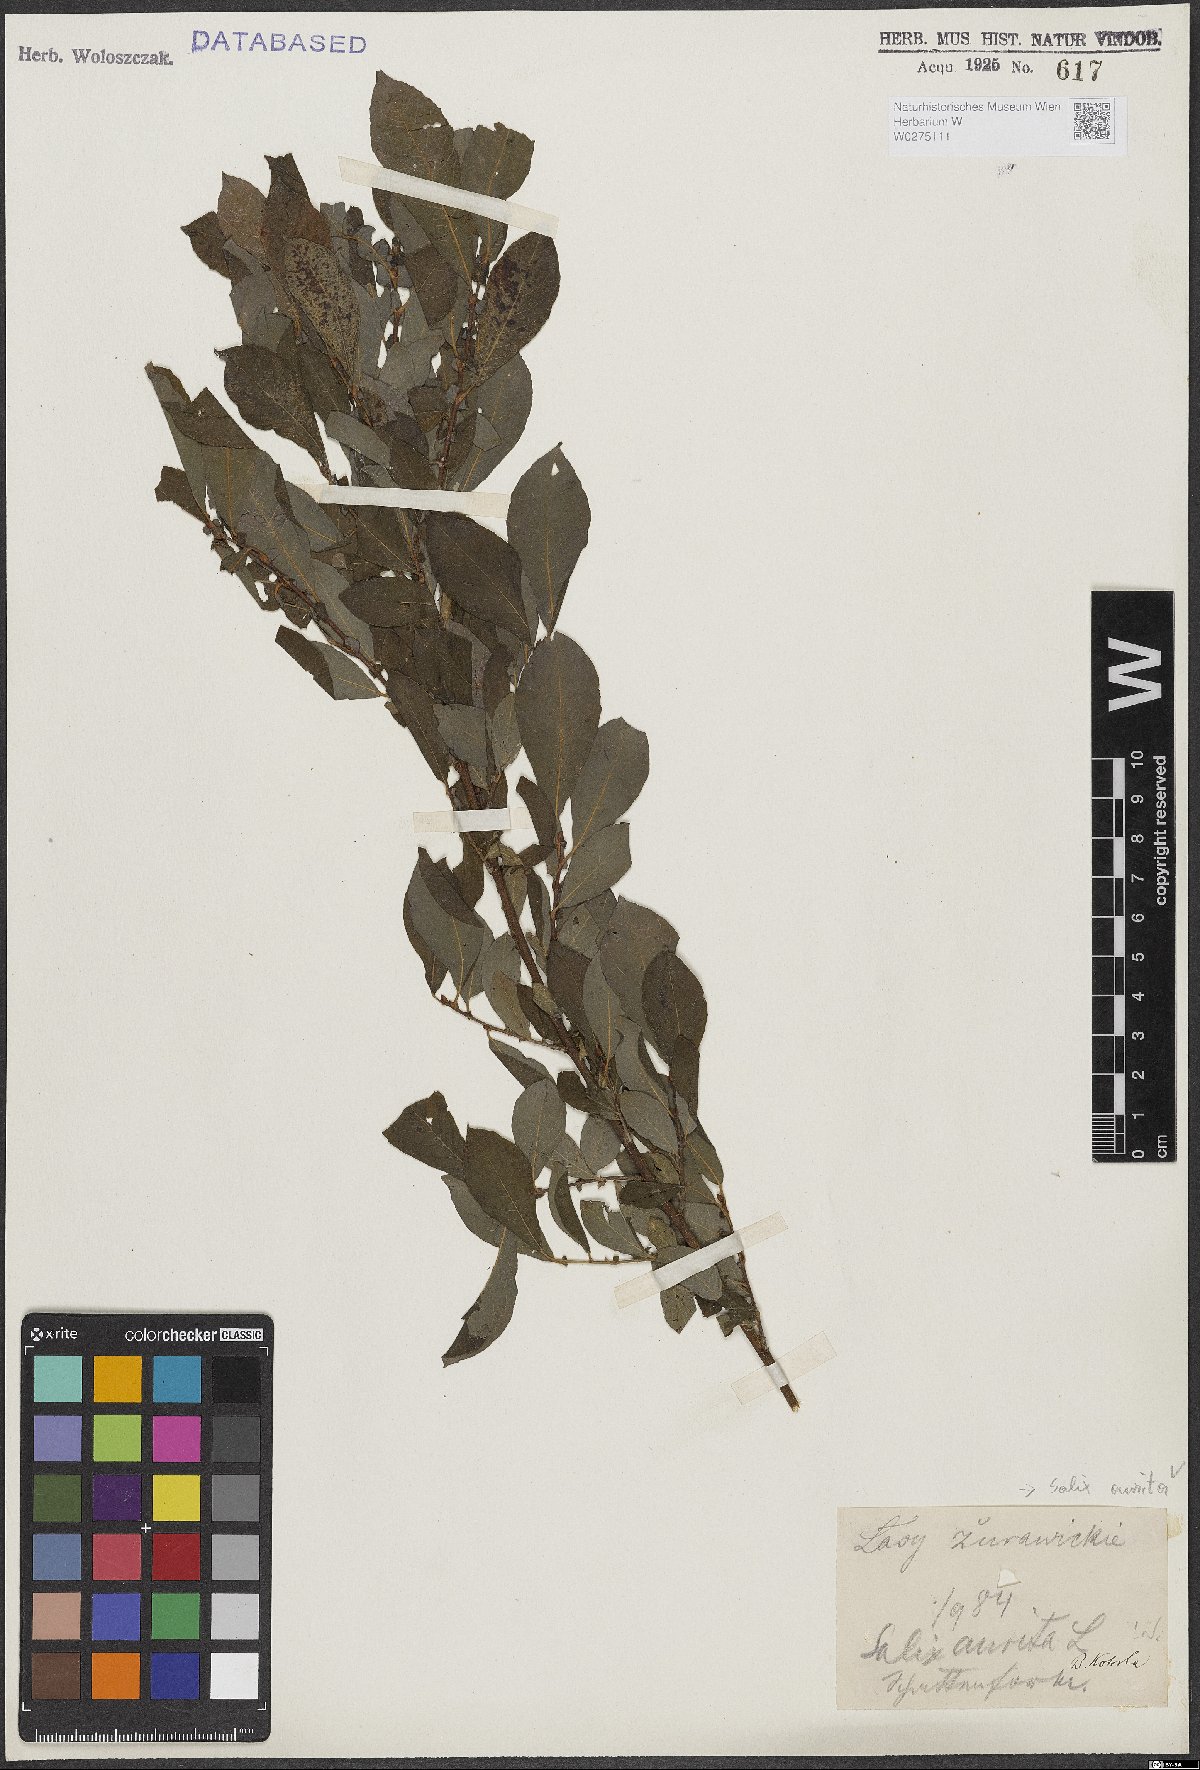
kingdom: Plantae
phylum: Tracheophyta
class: Magnoliopsida
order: Malpighiales
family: Salicaceae
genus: Salix
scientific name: Salix aurita
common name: Eared willow
